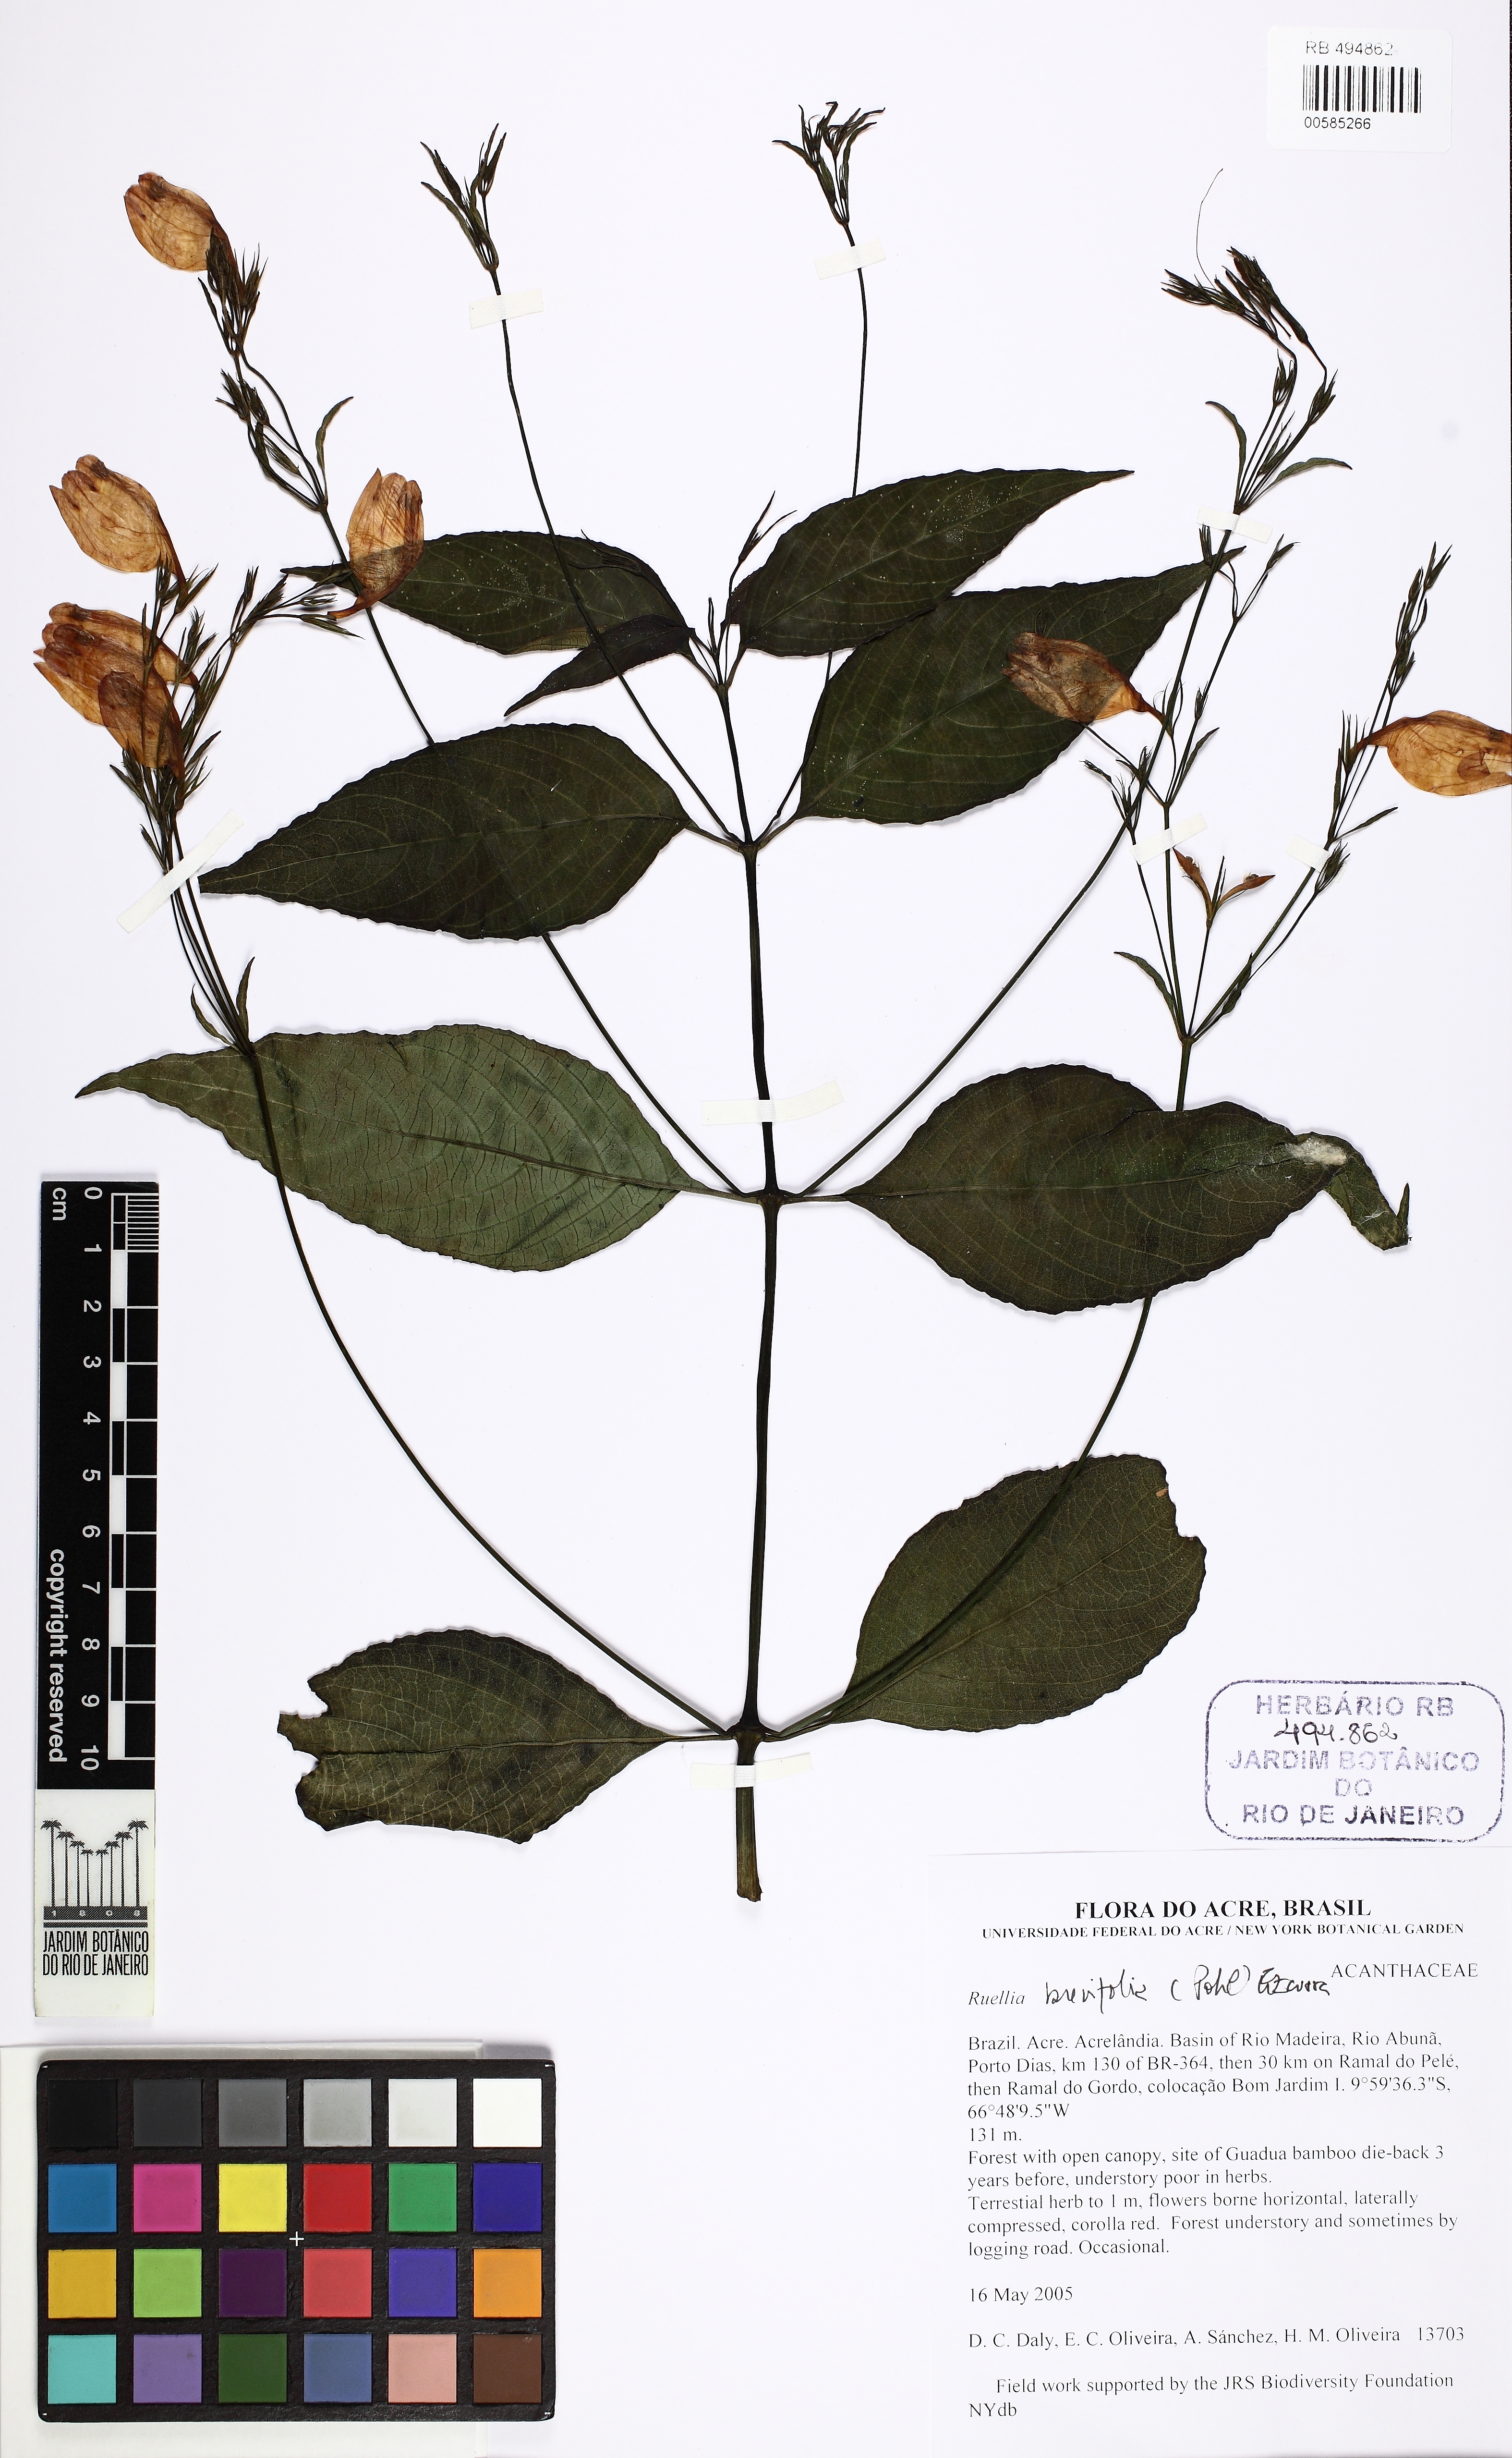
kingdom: Plantae
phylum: Tracheophyta
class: Magnoliopsida
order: Lamiales
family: Acanthaceae
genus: Ruellia
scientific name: Ruellia brevifolia
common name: Tropical wild petunia
